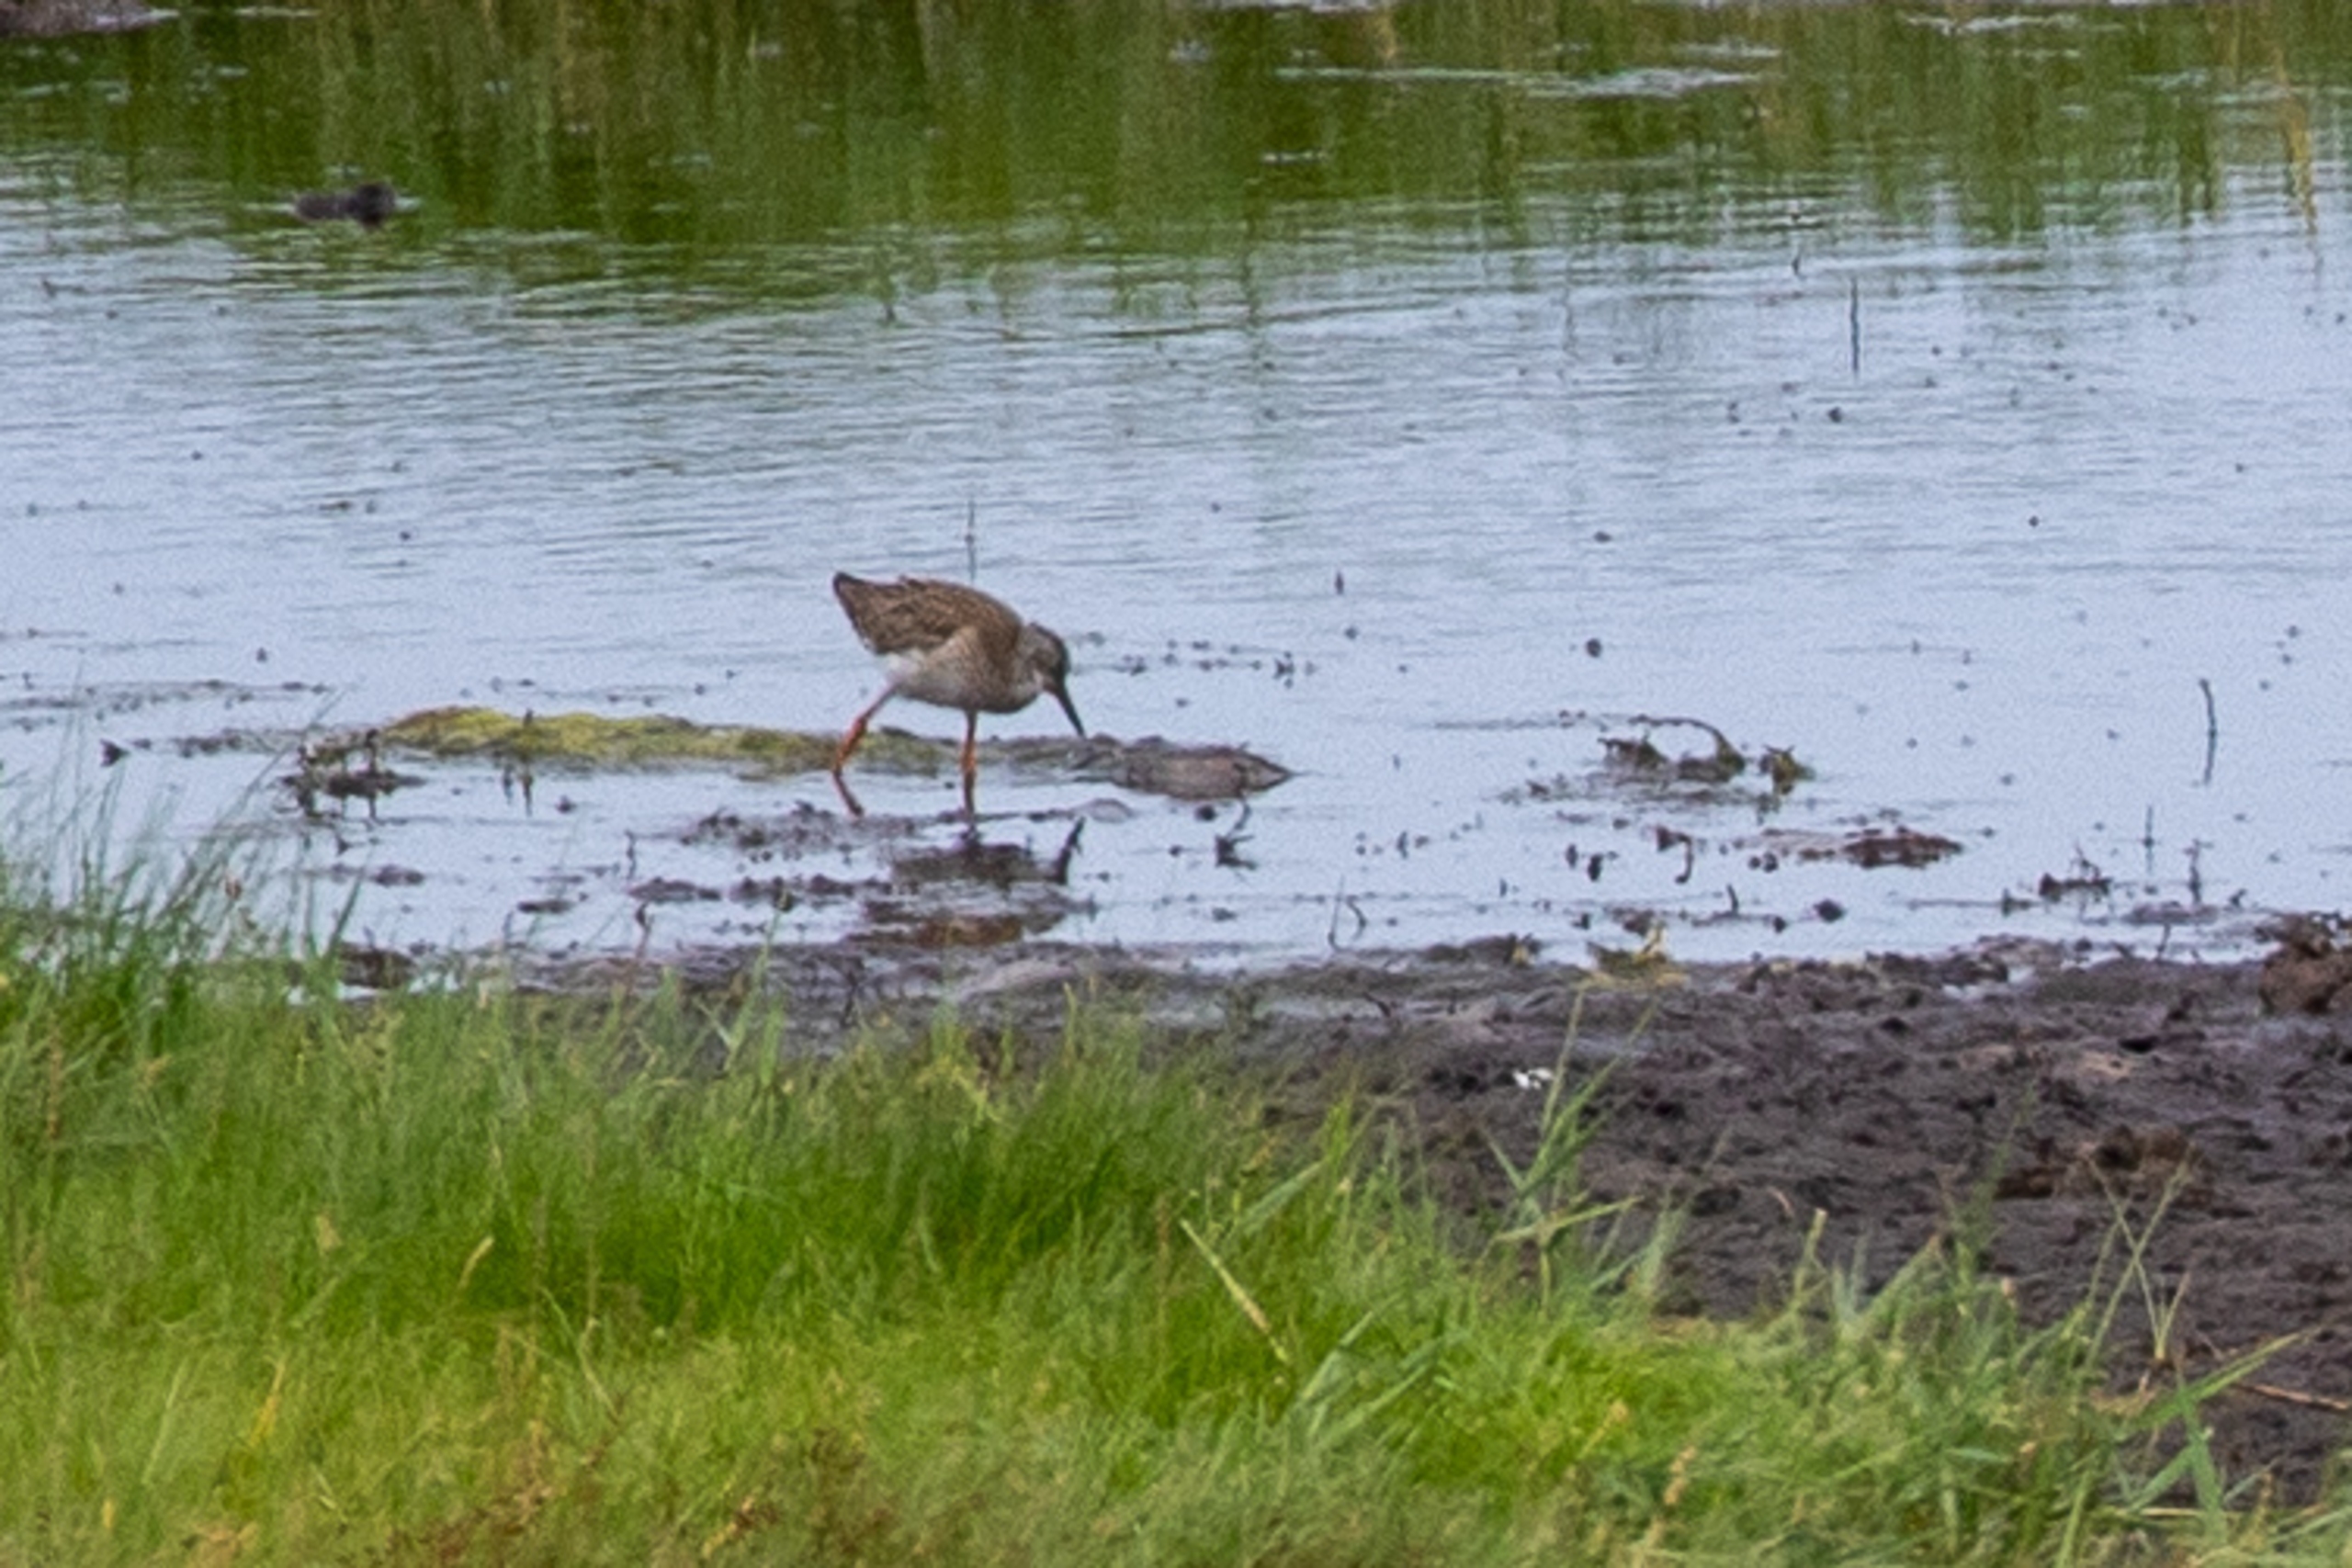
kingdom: Animalia
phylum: Chordata
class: Aves
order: Charadriiformes
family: Scolopacidae
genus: Tringa
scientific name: Tringa totanus
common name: Rødben
